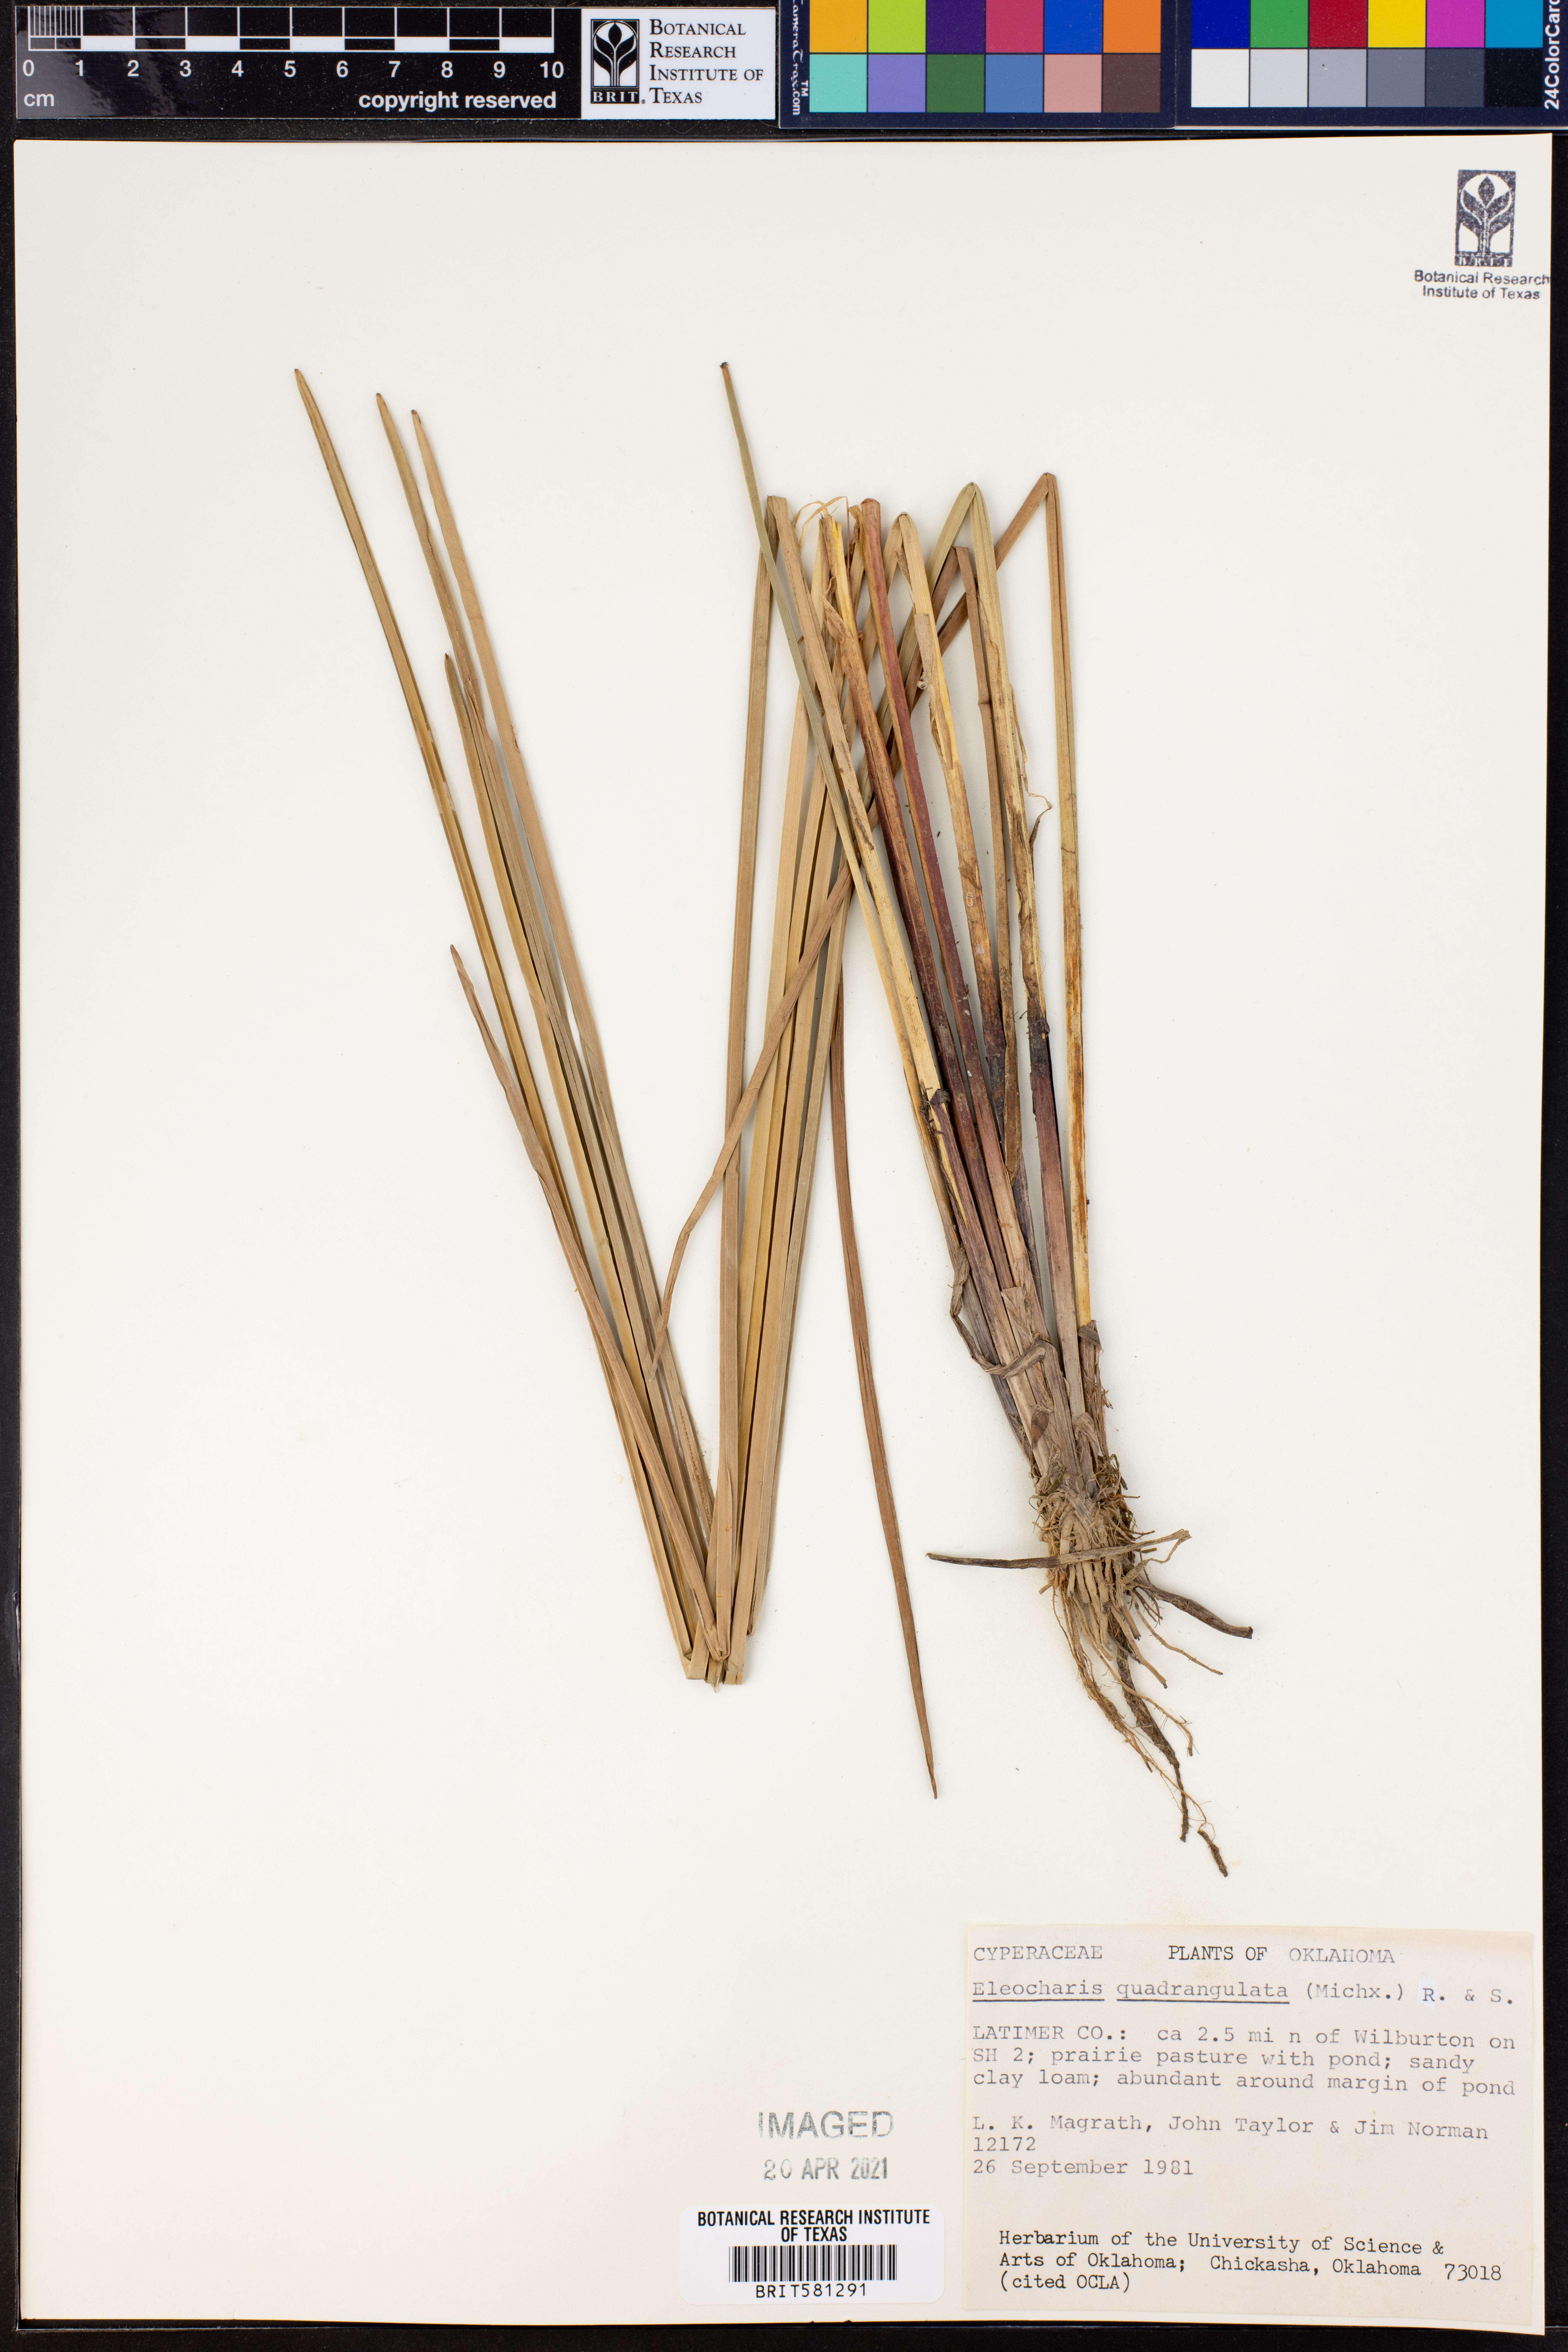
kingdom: Plantae
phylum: Tracheophyta
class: Liliopsida
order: Poales
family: Cyperaceae
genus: Eleocharis
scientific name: Eleocharis quadrangulata
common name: Square-stem spike-rush
